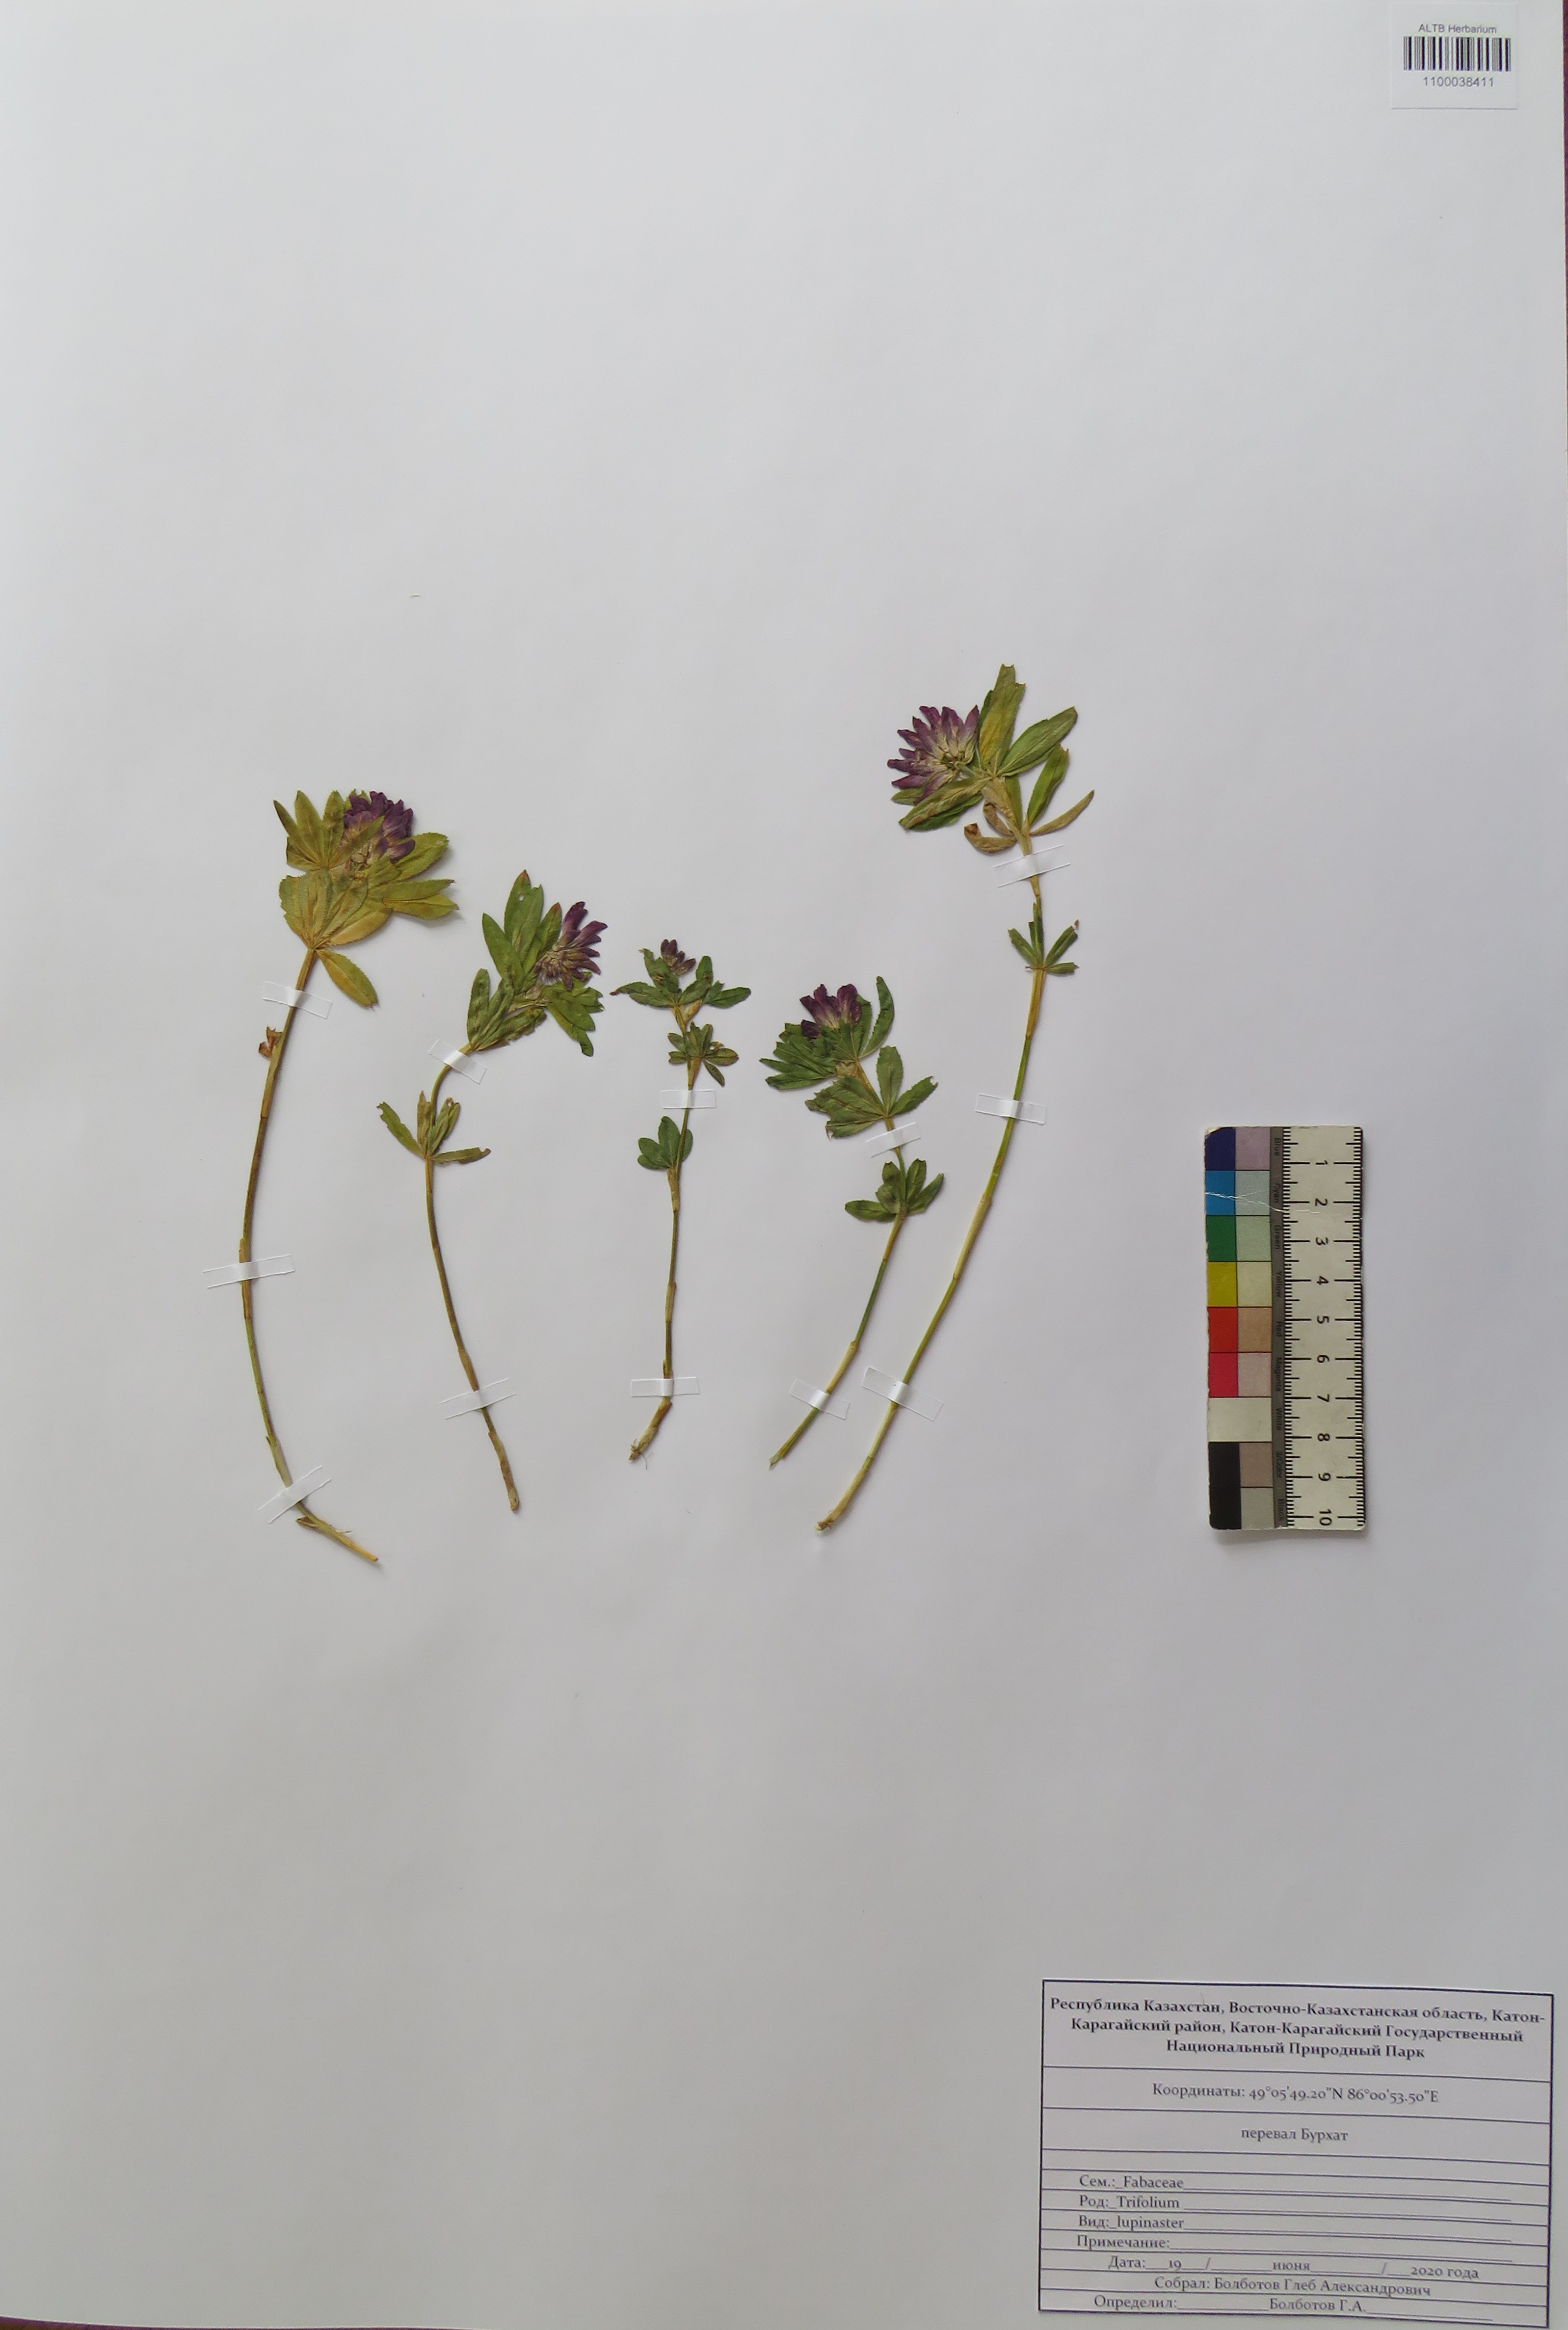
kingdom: Plantae
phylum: Tracheophyta
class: Magnoliopsida
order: Fabales
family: Fabaceae
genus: Trifolium
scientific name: Trifolium lupinaster
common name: Lupine clover
